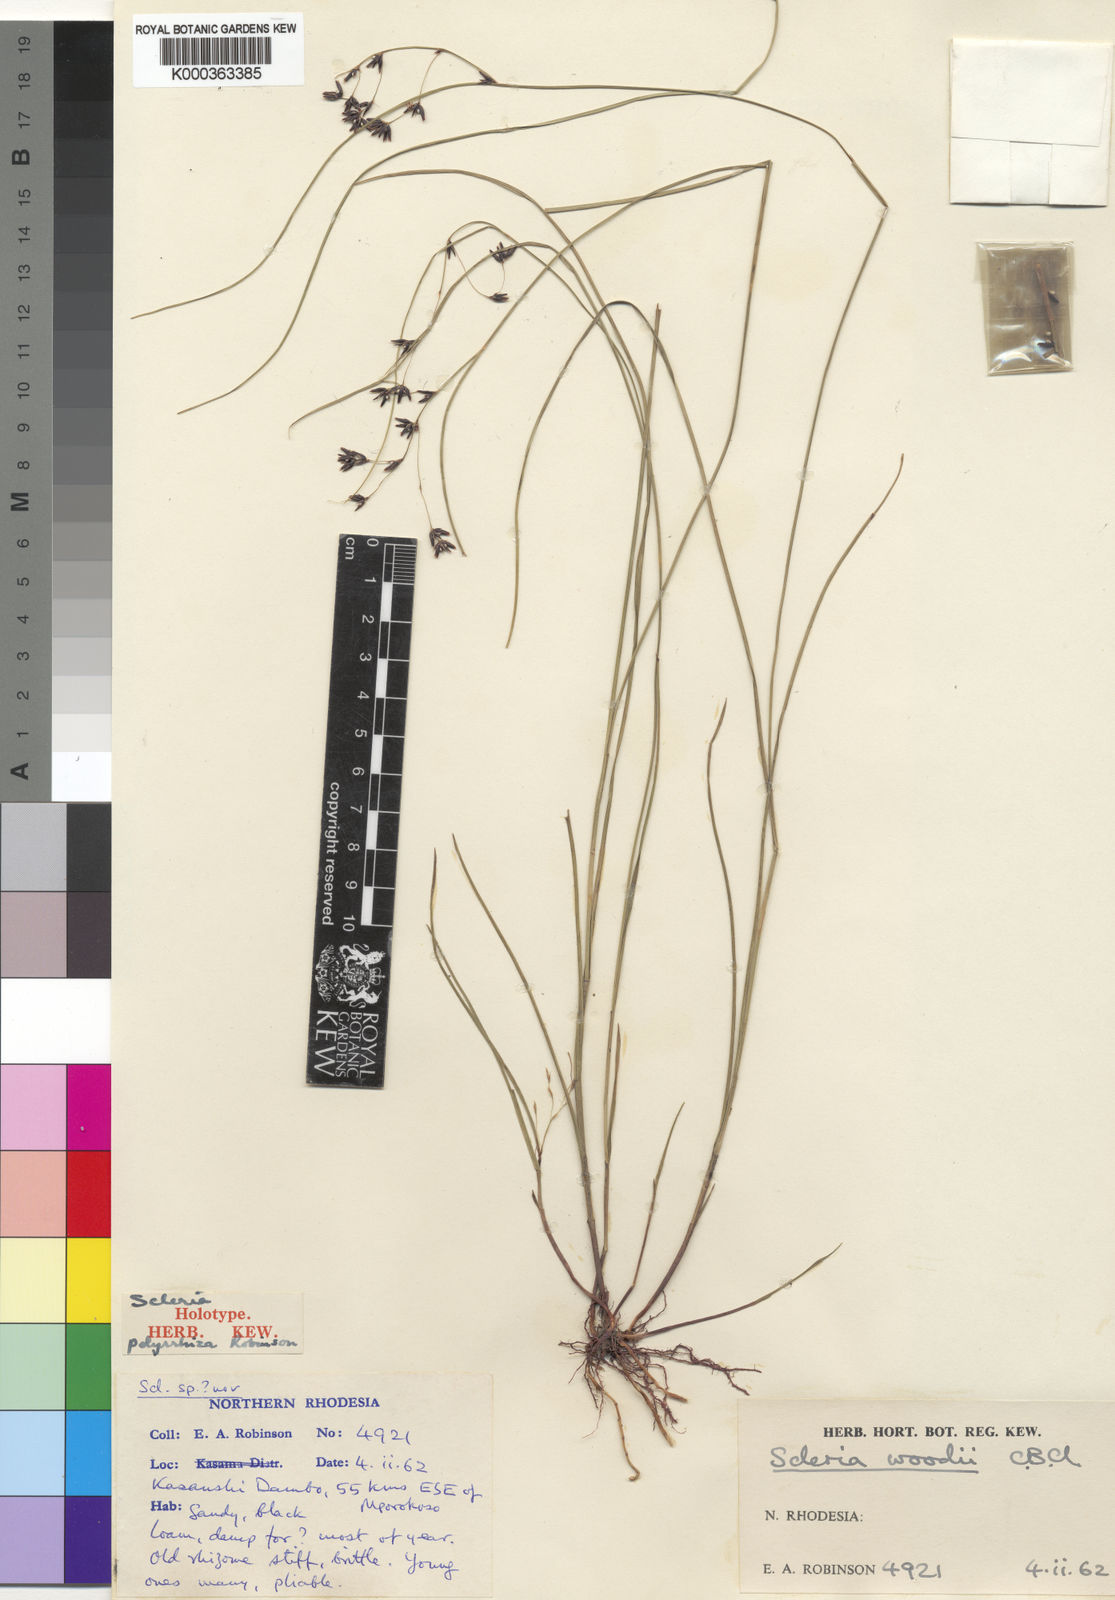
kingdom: Plantae
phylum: Tracheophyta
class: Liliopsida
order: Poales
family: Cyperaceae
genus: Scleria
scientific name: Scleria polyrrhiza
